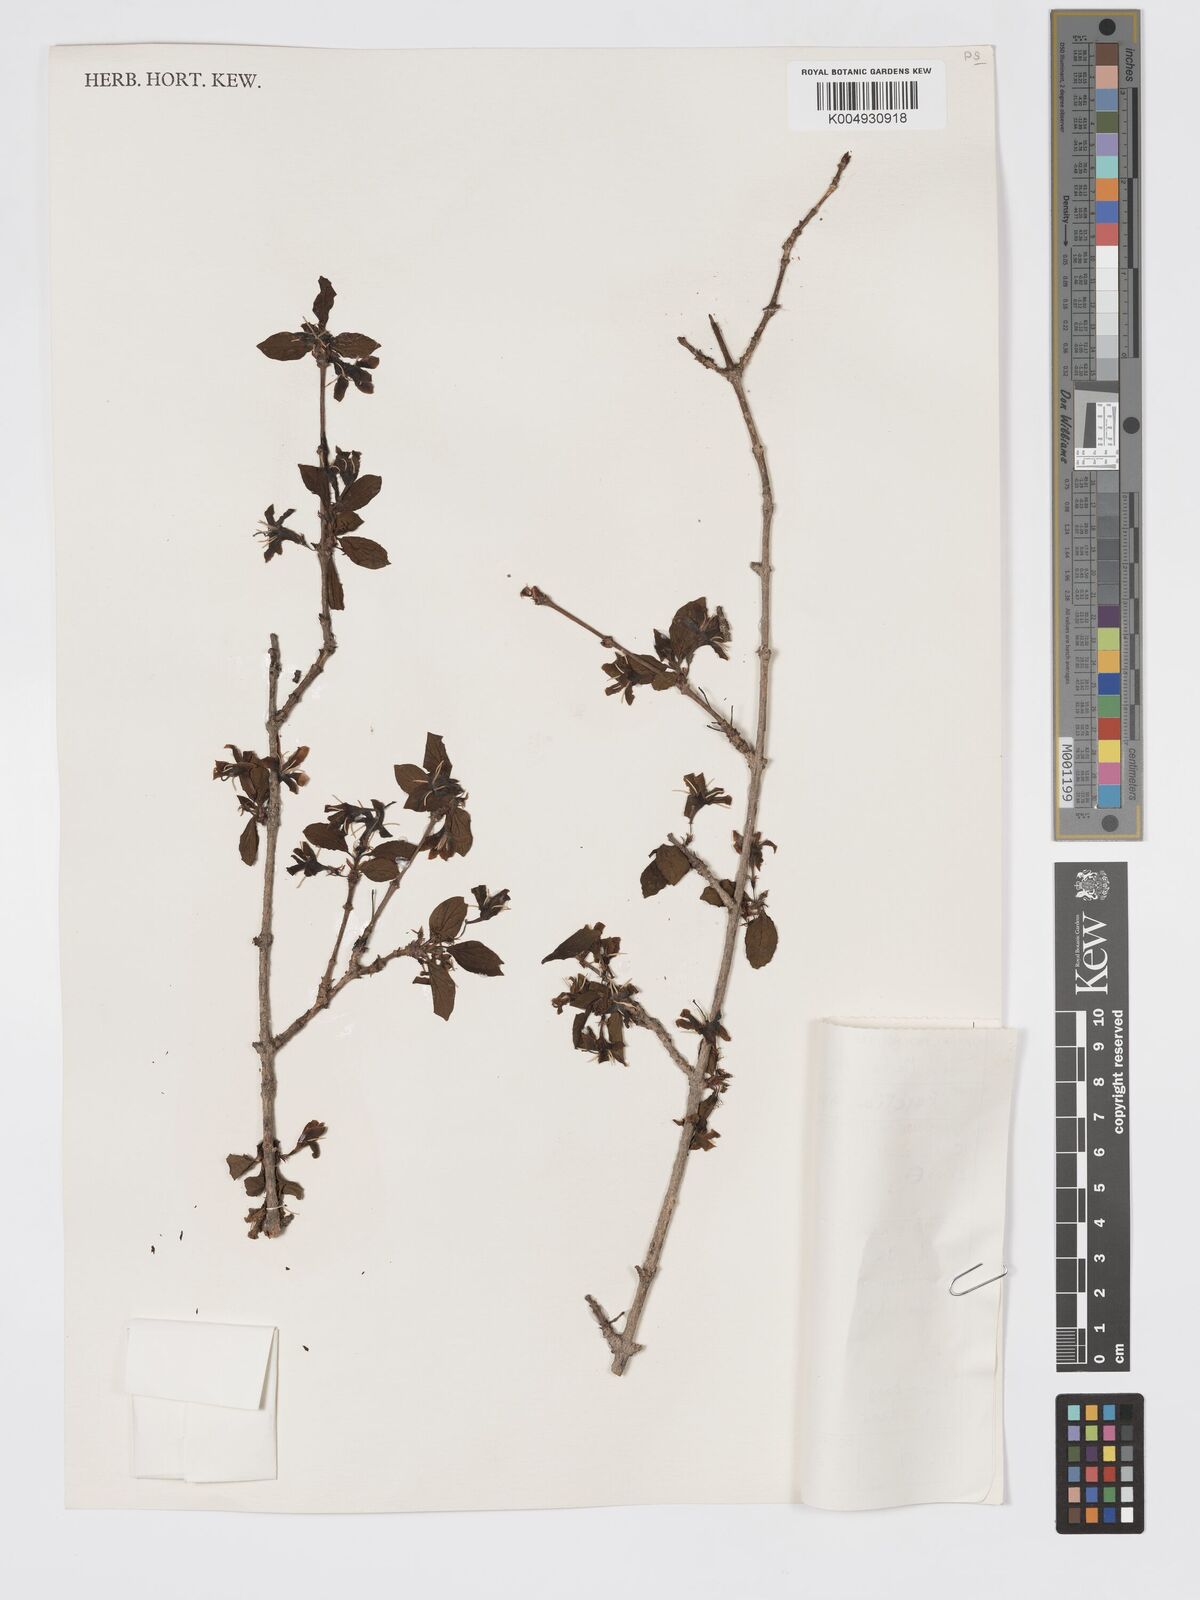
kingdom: Plantae
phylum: Tracheophyta
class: Magnoliopsida
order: Gentianales
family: Rubiaceae
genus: Feretia
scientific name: Feretia apodanthera
